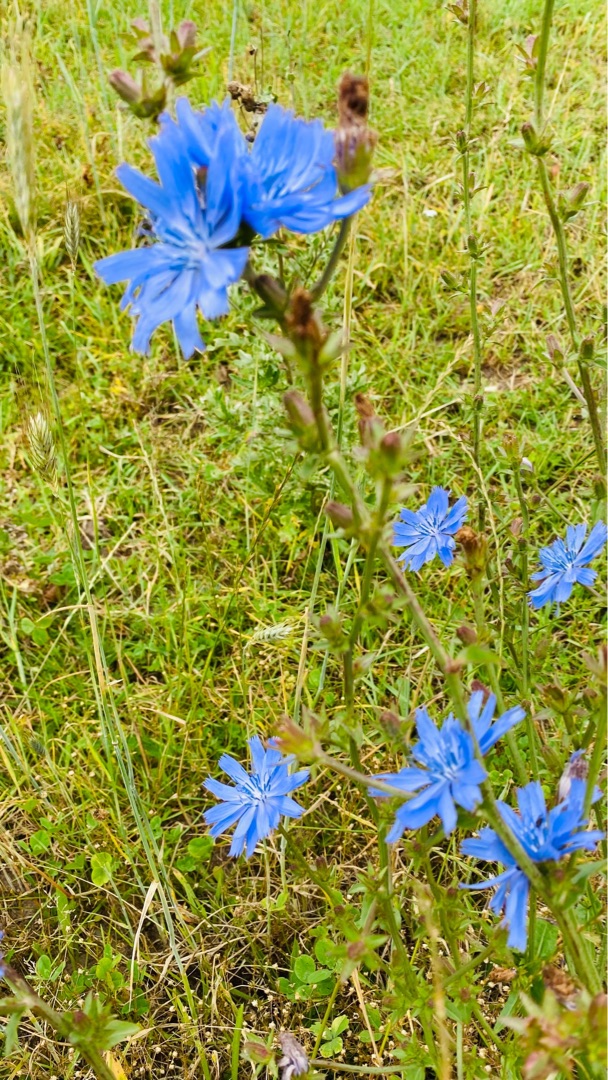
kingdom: Plantae
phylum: Tracheophyta
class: Magnoliopsida
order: Asterales
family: Asteraceae
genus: Cichorium
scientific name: Cichorium intybus
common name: Cikorie
